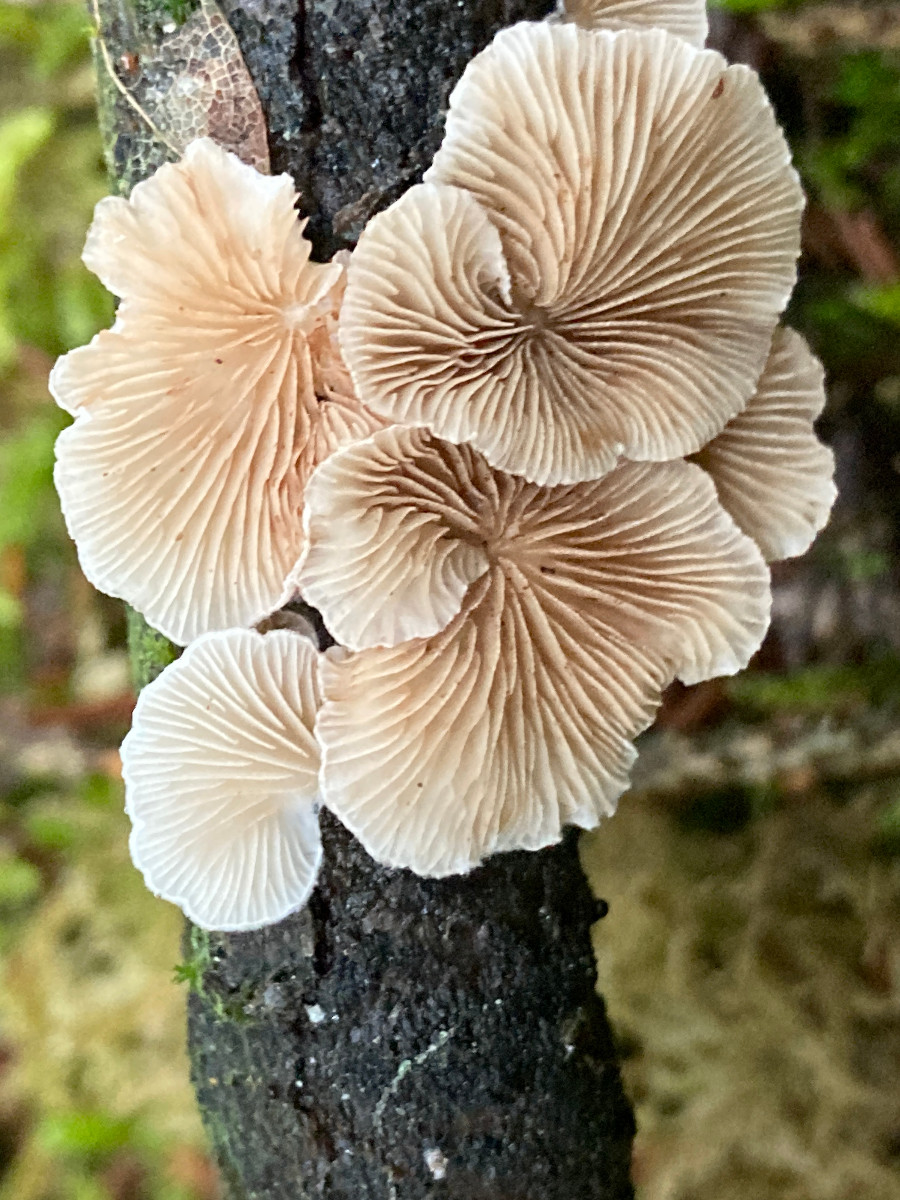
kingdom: Fungi
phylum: Basidiomycota
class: Agaricomycetes
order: Agaricales
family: Crepidotaceae
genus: Crepidotus
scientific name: Crepidotus
